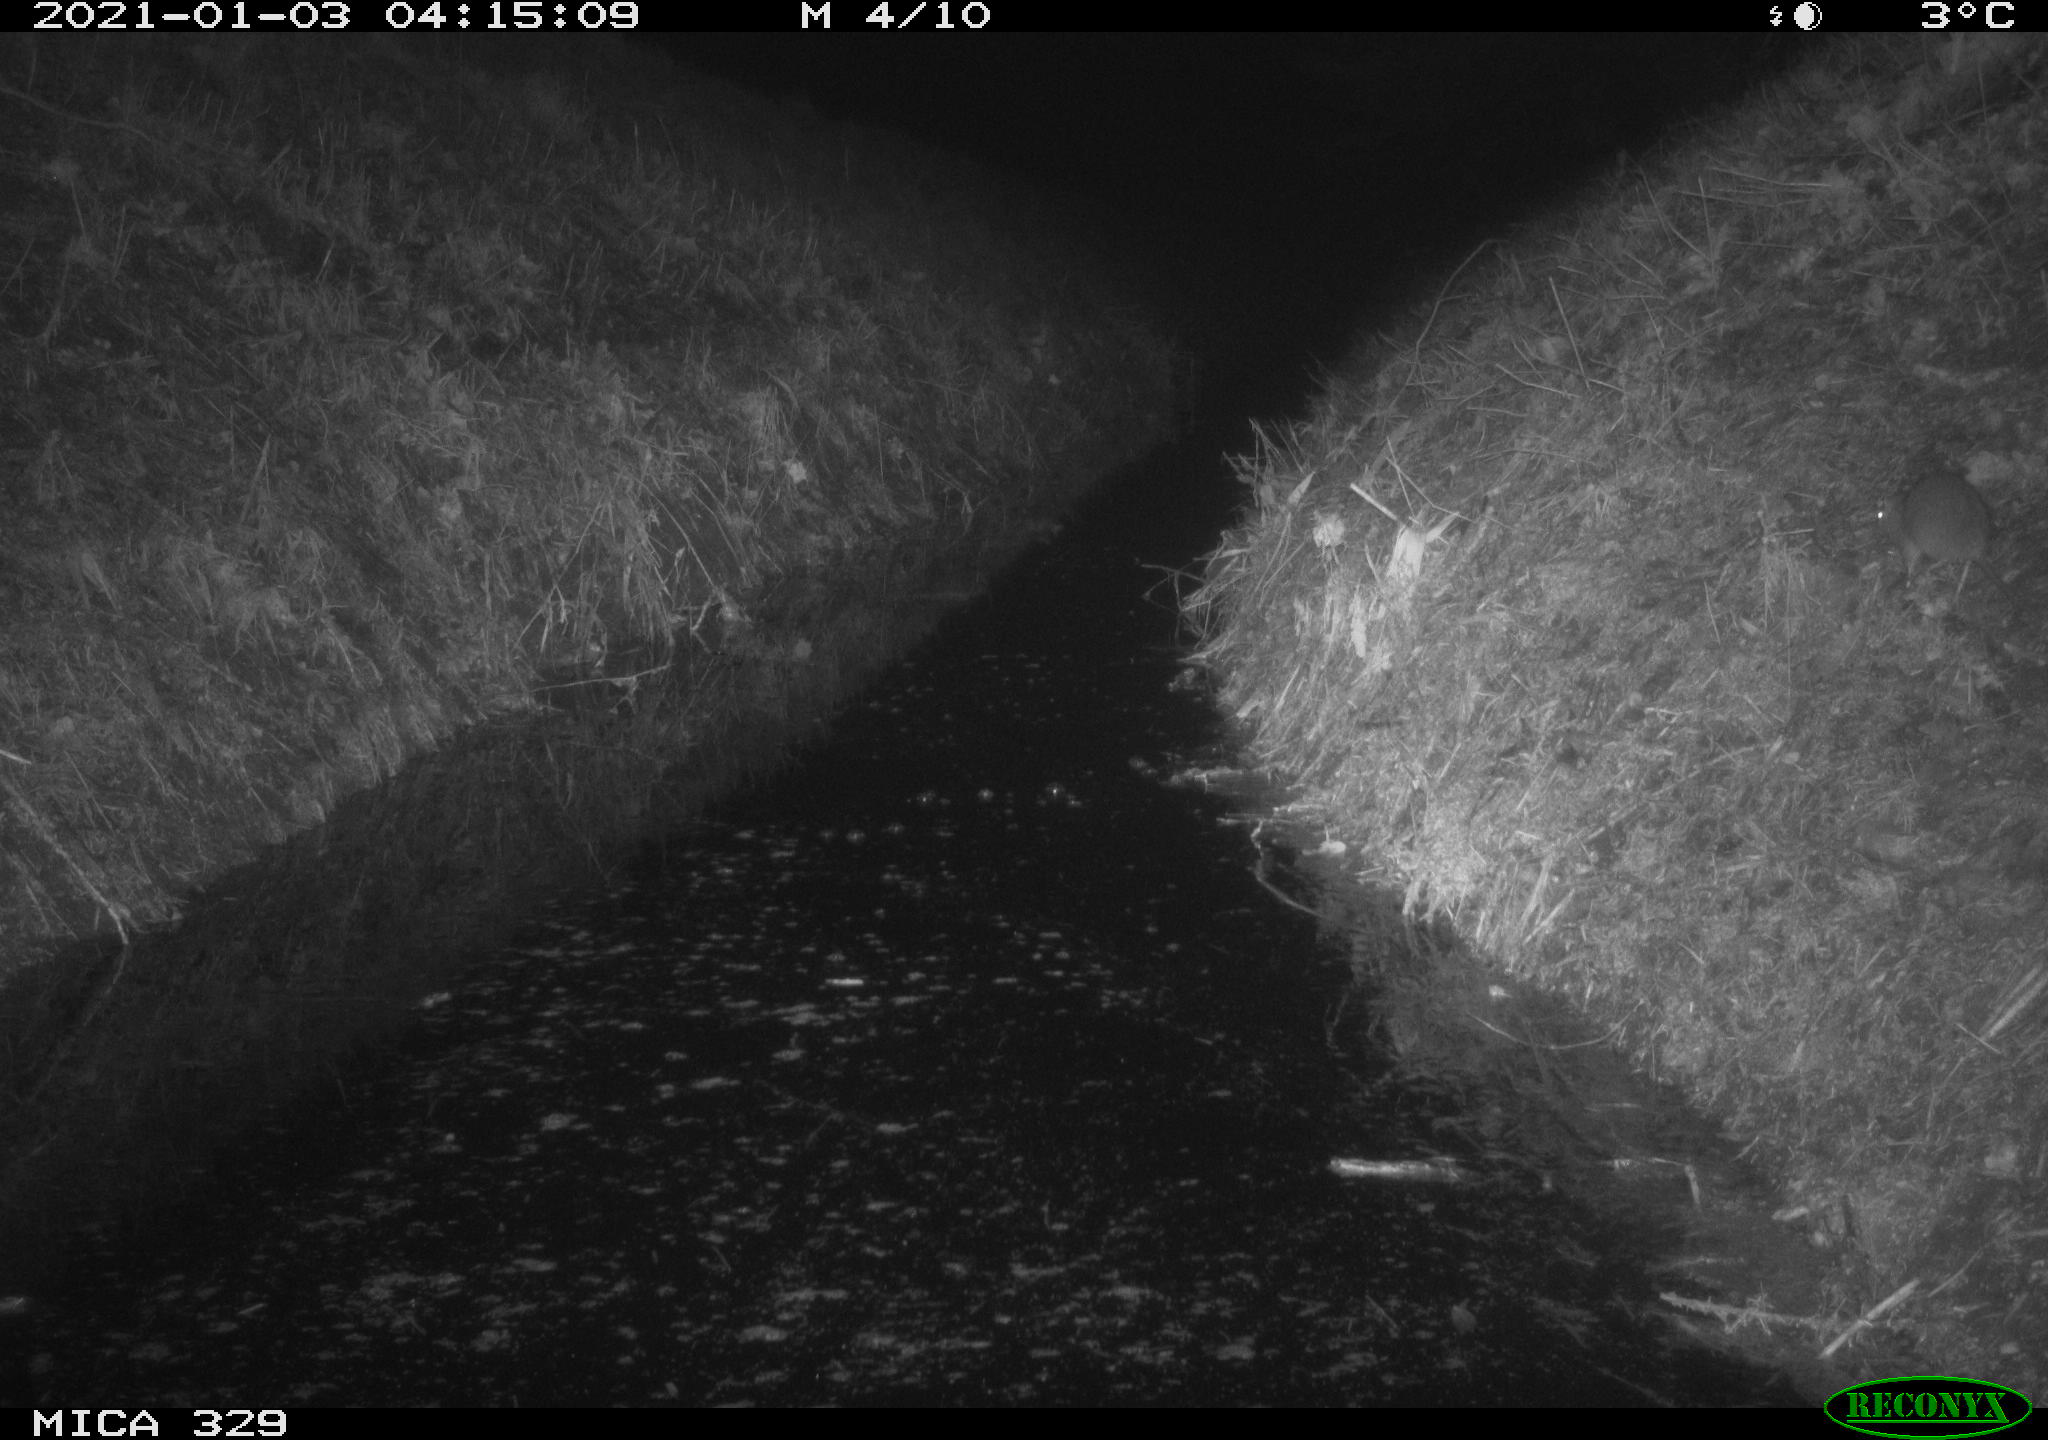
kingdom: Animalia
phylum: Chordata
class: Mammalia
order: Rodentia
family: Muridae
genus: Rattus
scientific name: Rattus norvegicus
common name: Brown rat
